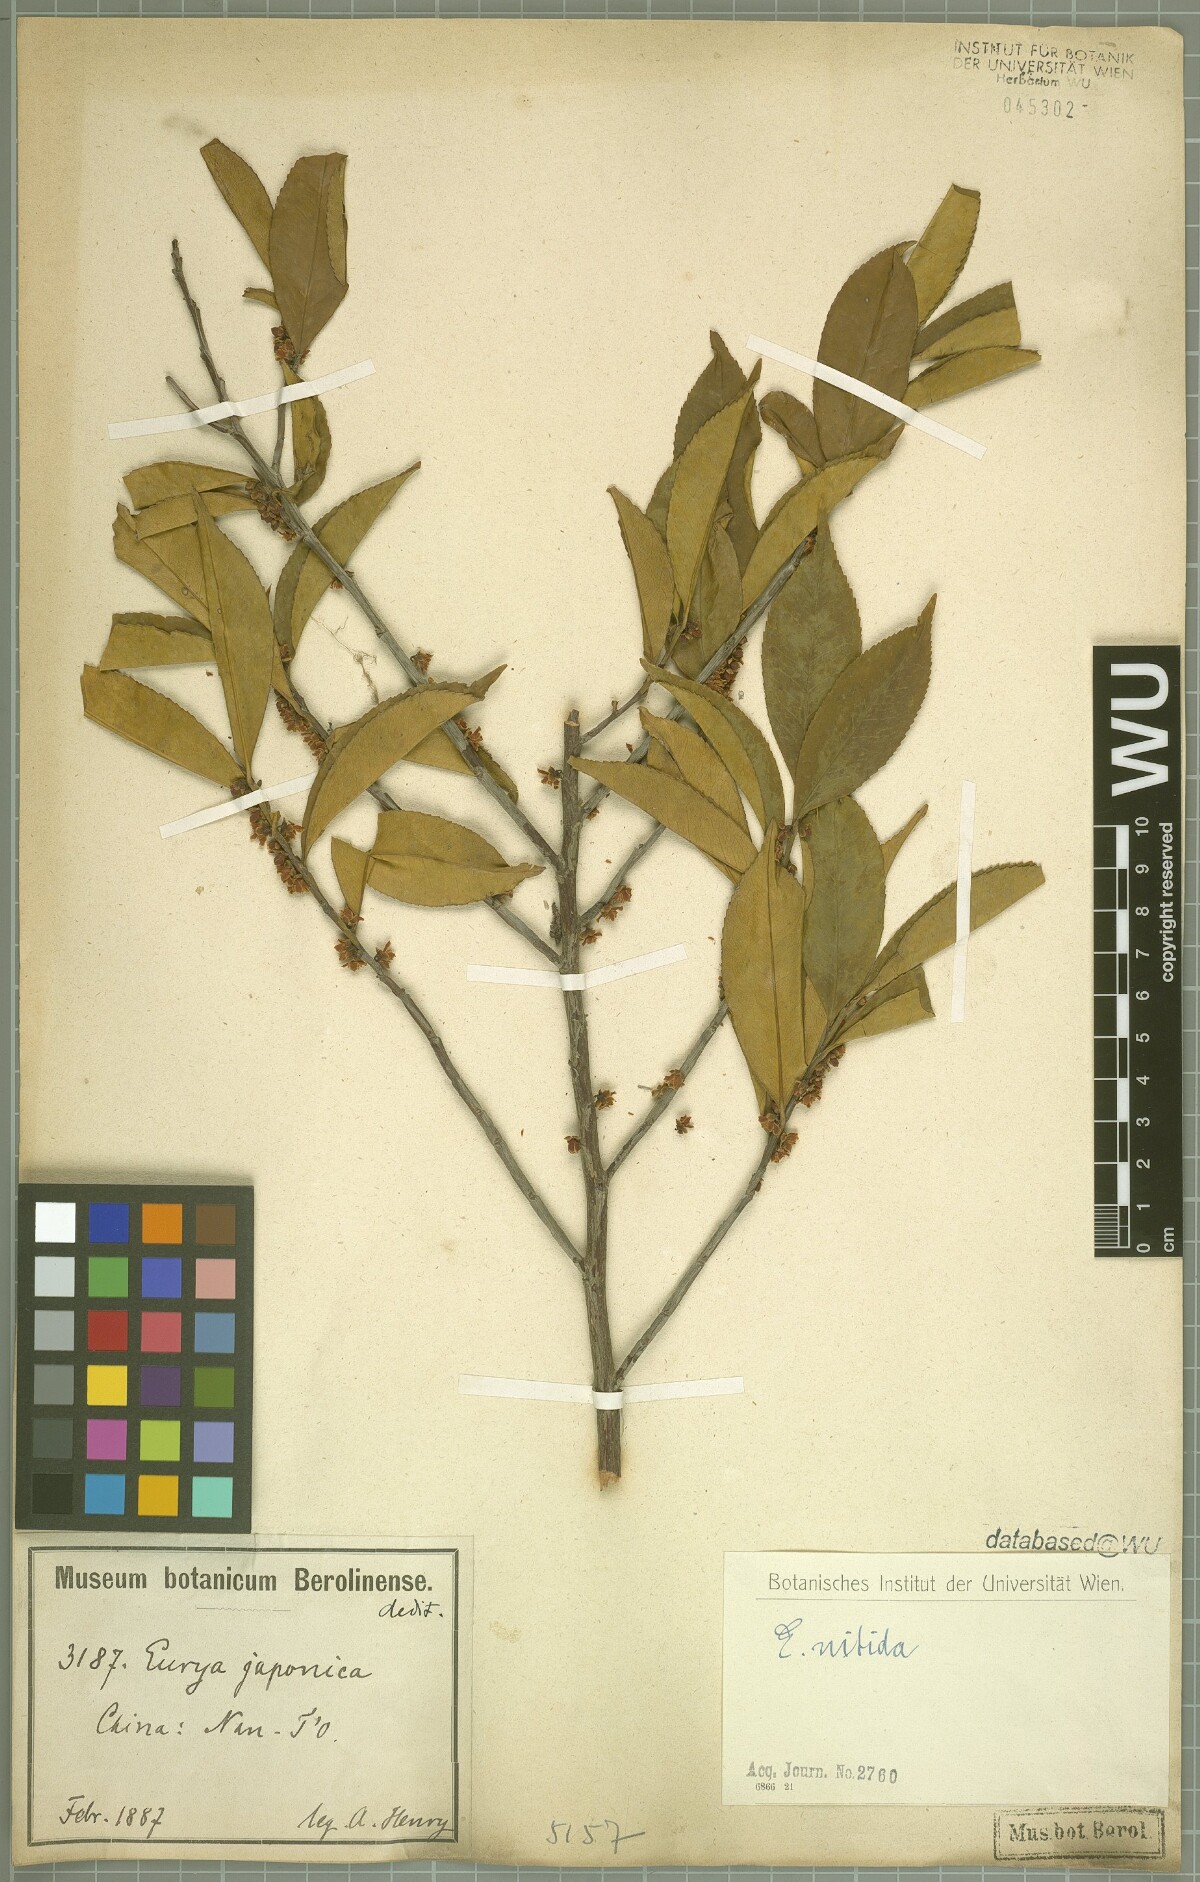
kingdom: Plantae
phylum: Tracheophyta
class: Magnoliopsida
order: Ericales
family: Pentaphylacaceae
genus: Eurya
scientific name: Eurya nitida
